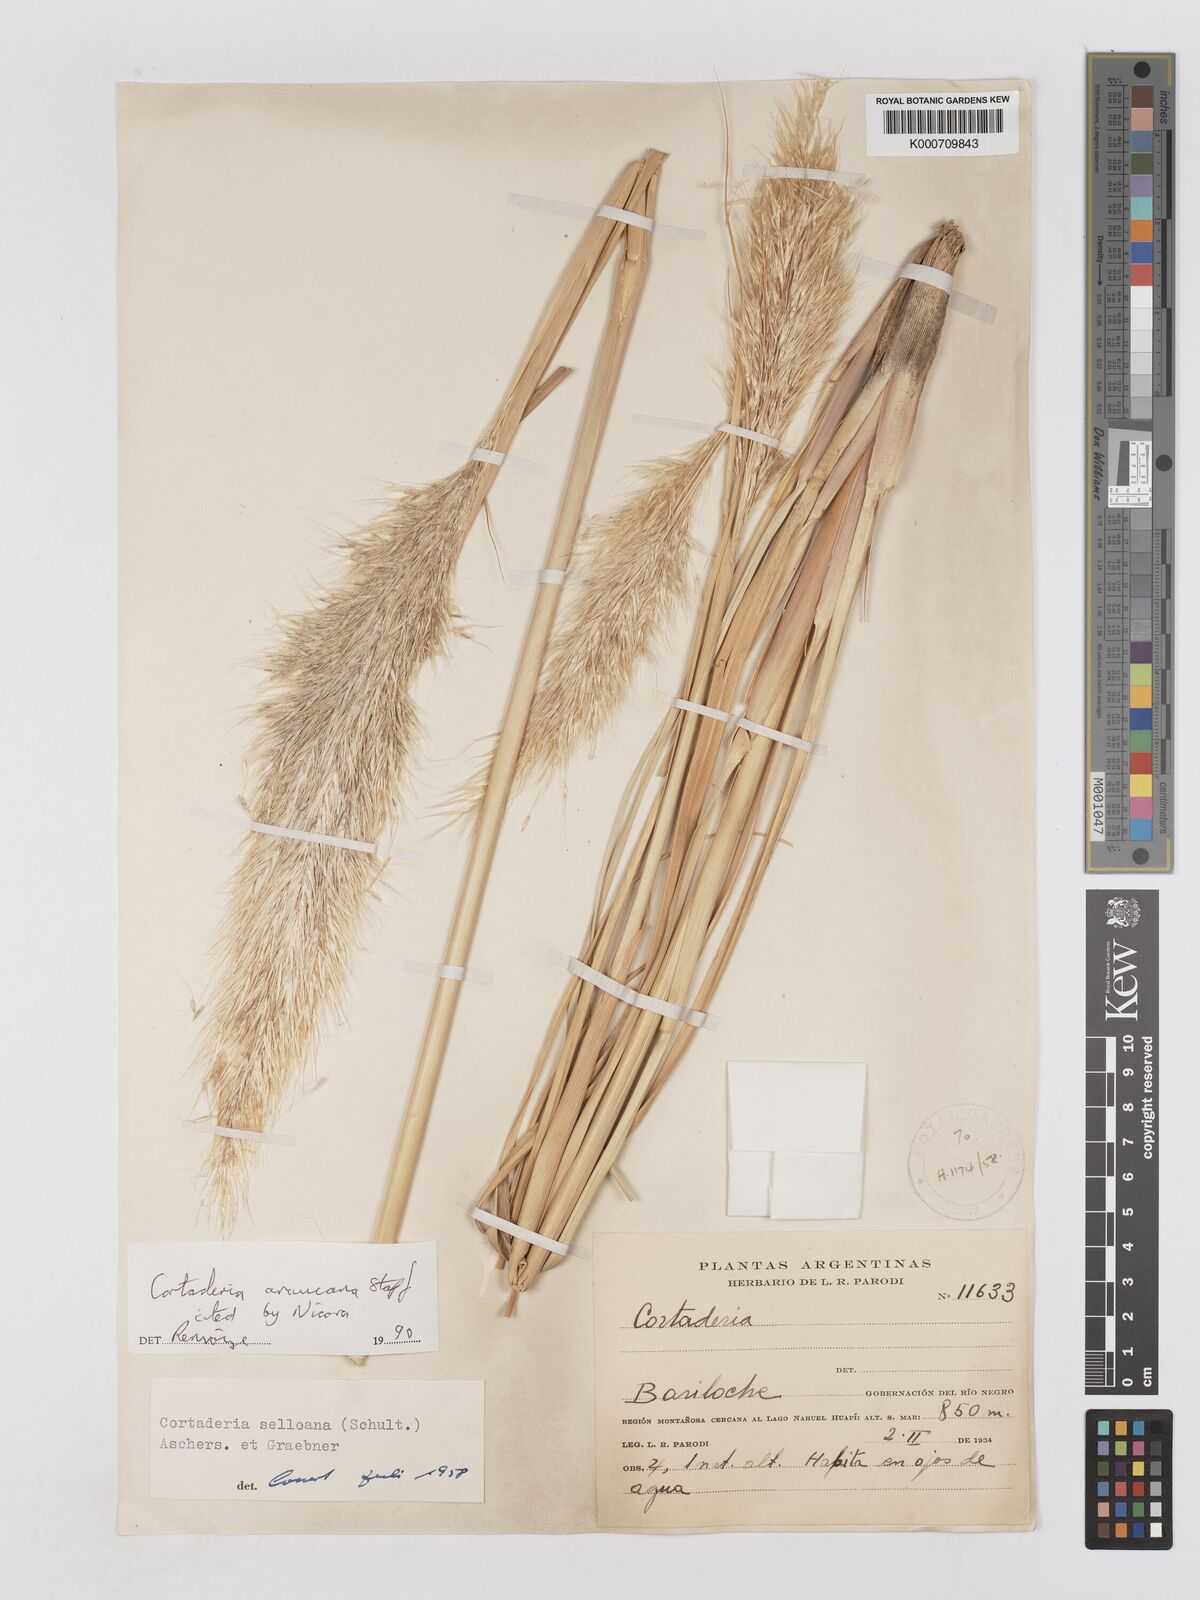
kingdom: Plantae
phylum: Tracheophyta
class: Liliopsida
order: Poales
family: Poaceae
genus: Cortaderia
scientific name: Cortaderia araucana
